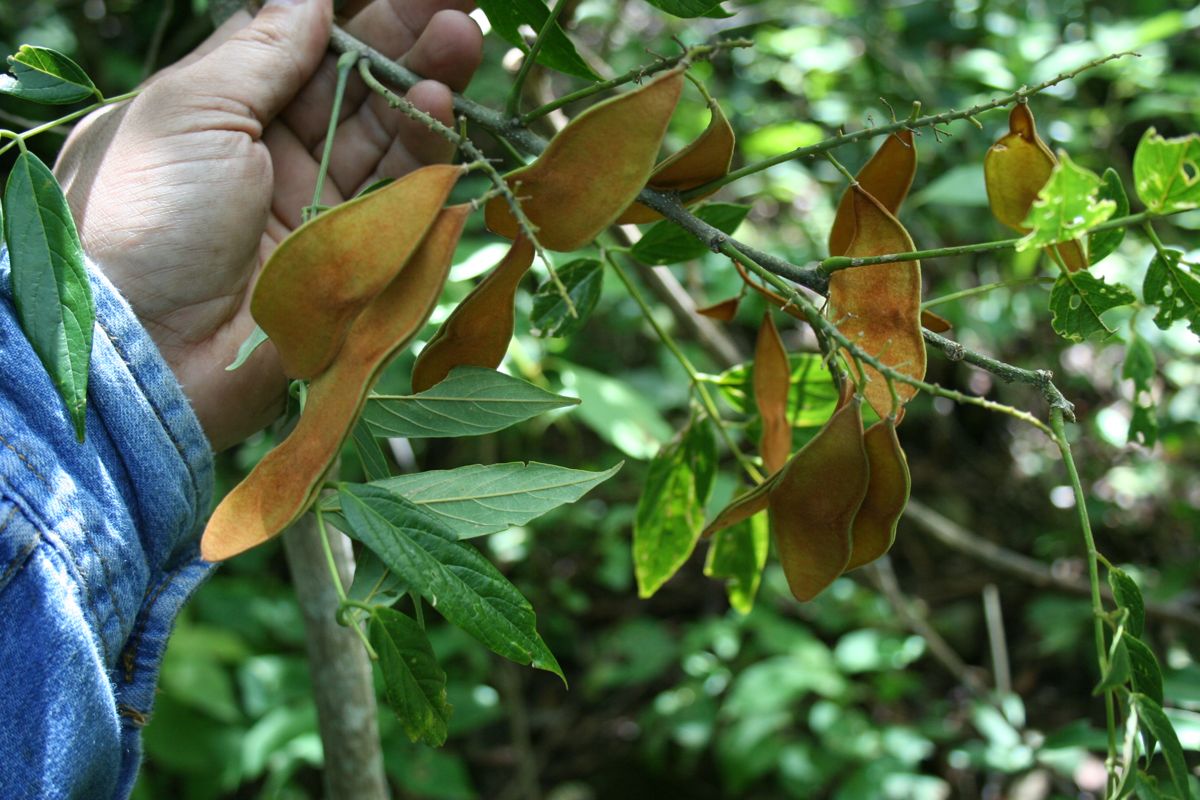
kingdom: Plantae
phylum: Tracheophyta
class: Magnoliopsida
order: Fabales
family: Fabaceae
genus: Lonchocarpus
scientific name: Lonchocarpus santarosanus
